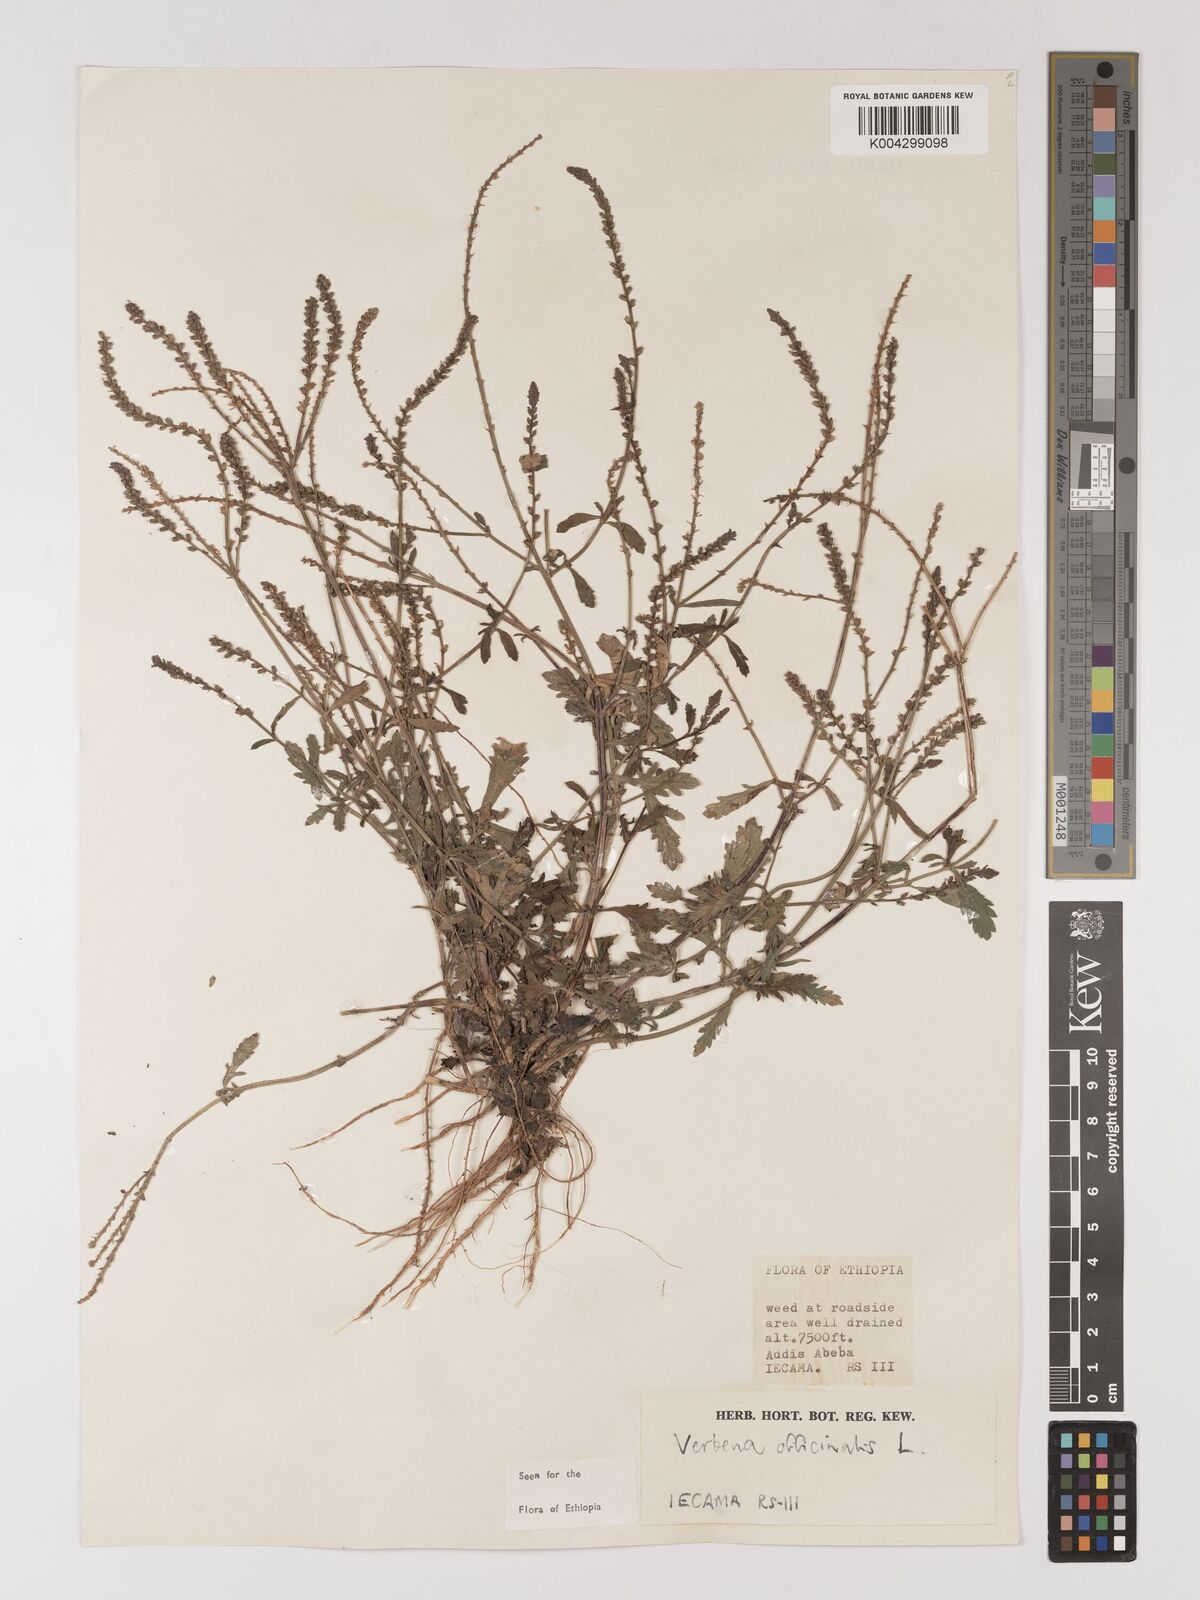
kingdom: Plantae
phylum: Tracheophyta
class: Magnoliopsida
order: Lamiales
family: Verbenaceae
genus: Verbena
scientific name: Verbena officinalis
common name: Vervain
